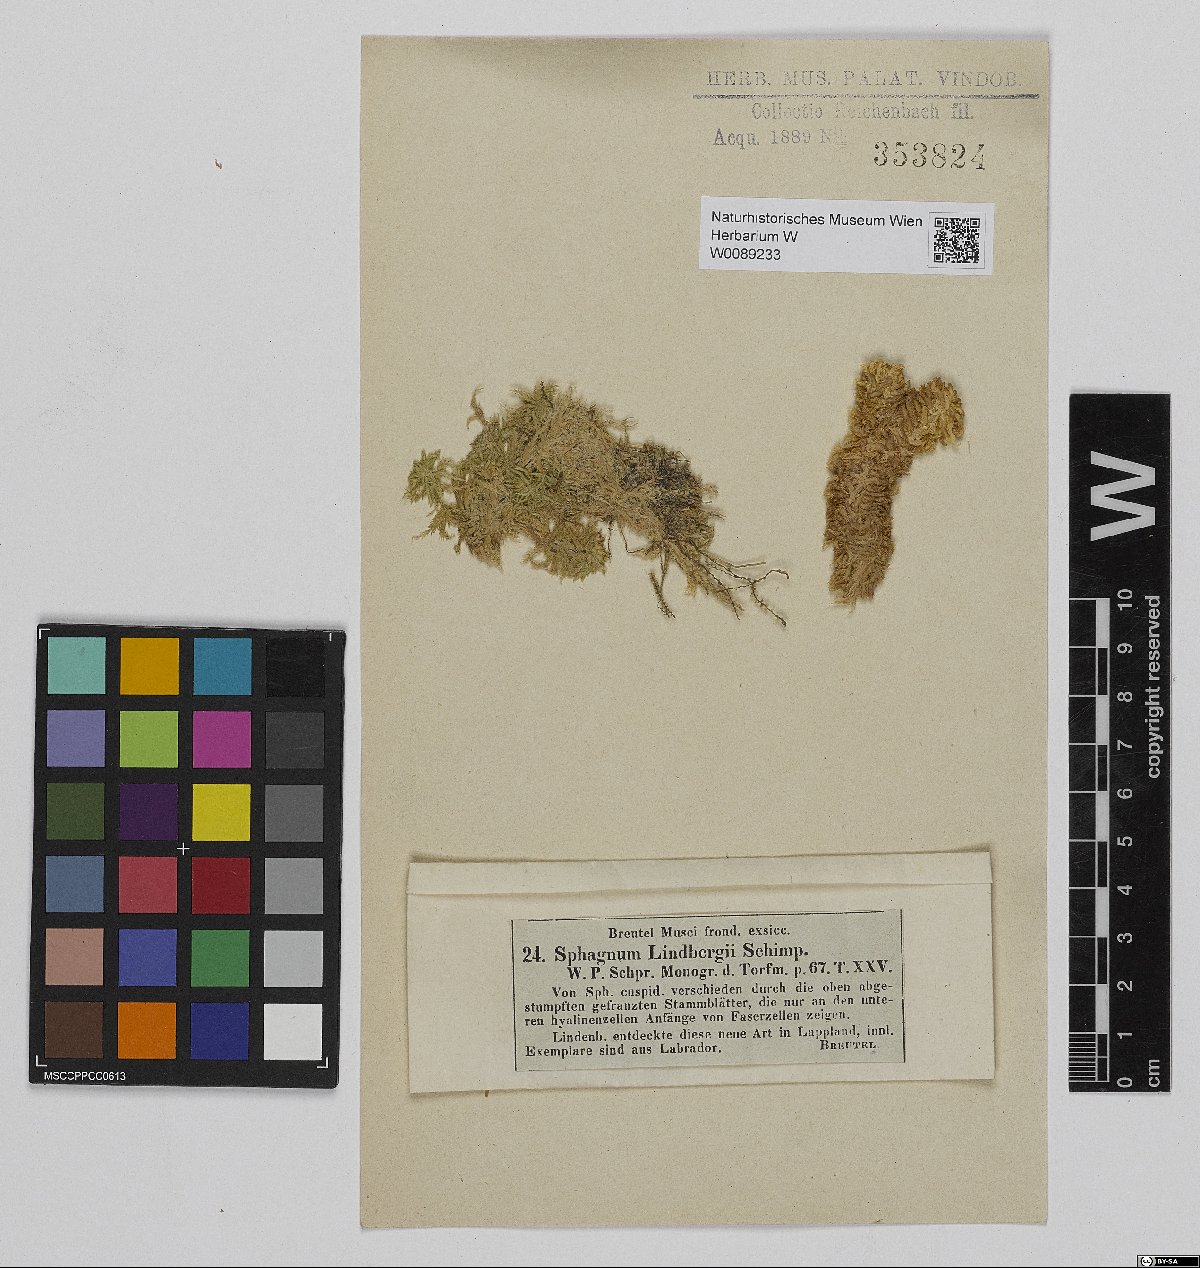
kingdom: Plantae
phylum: Bryophyta
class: Sphagnopsida
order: Sphagnales
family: Sphagnaceae
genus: Sphagnum
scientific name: Sphagnum lindbergii
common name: Lindberg's peat moss
